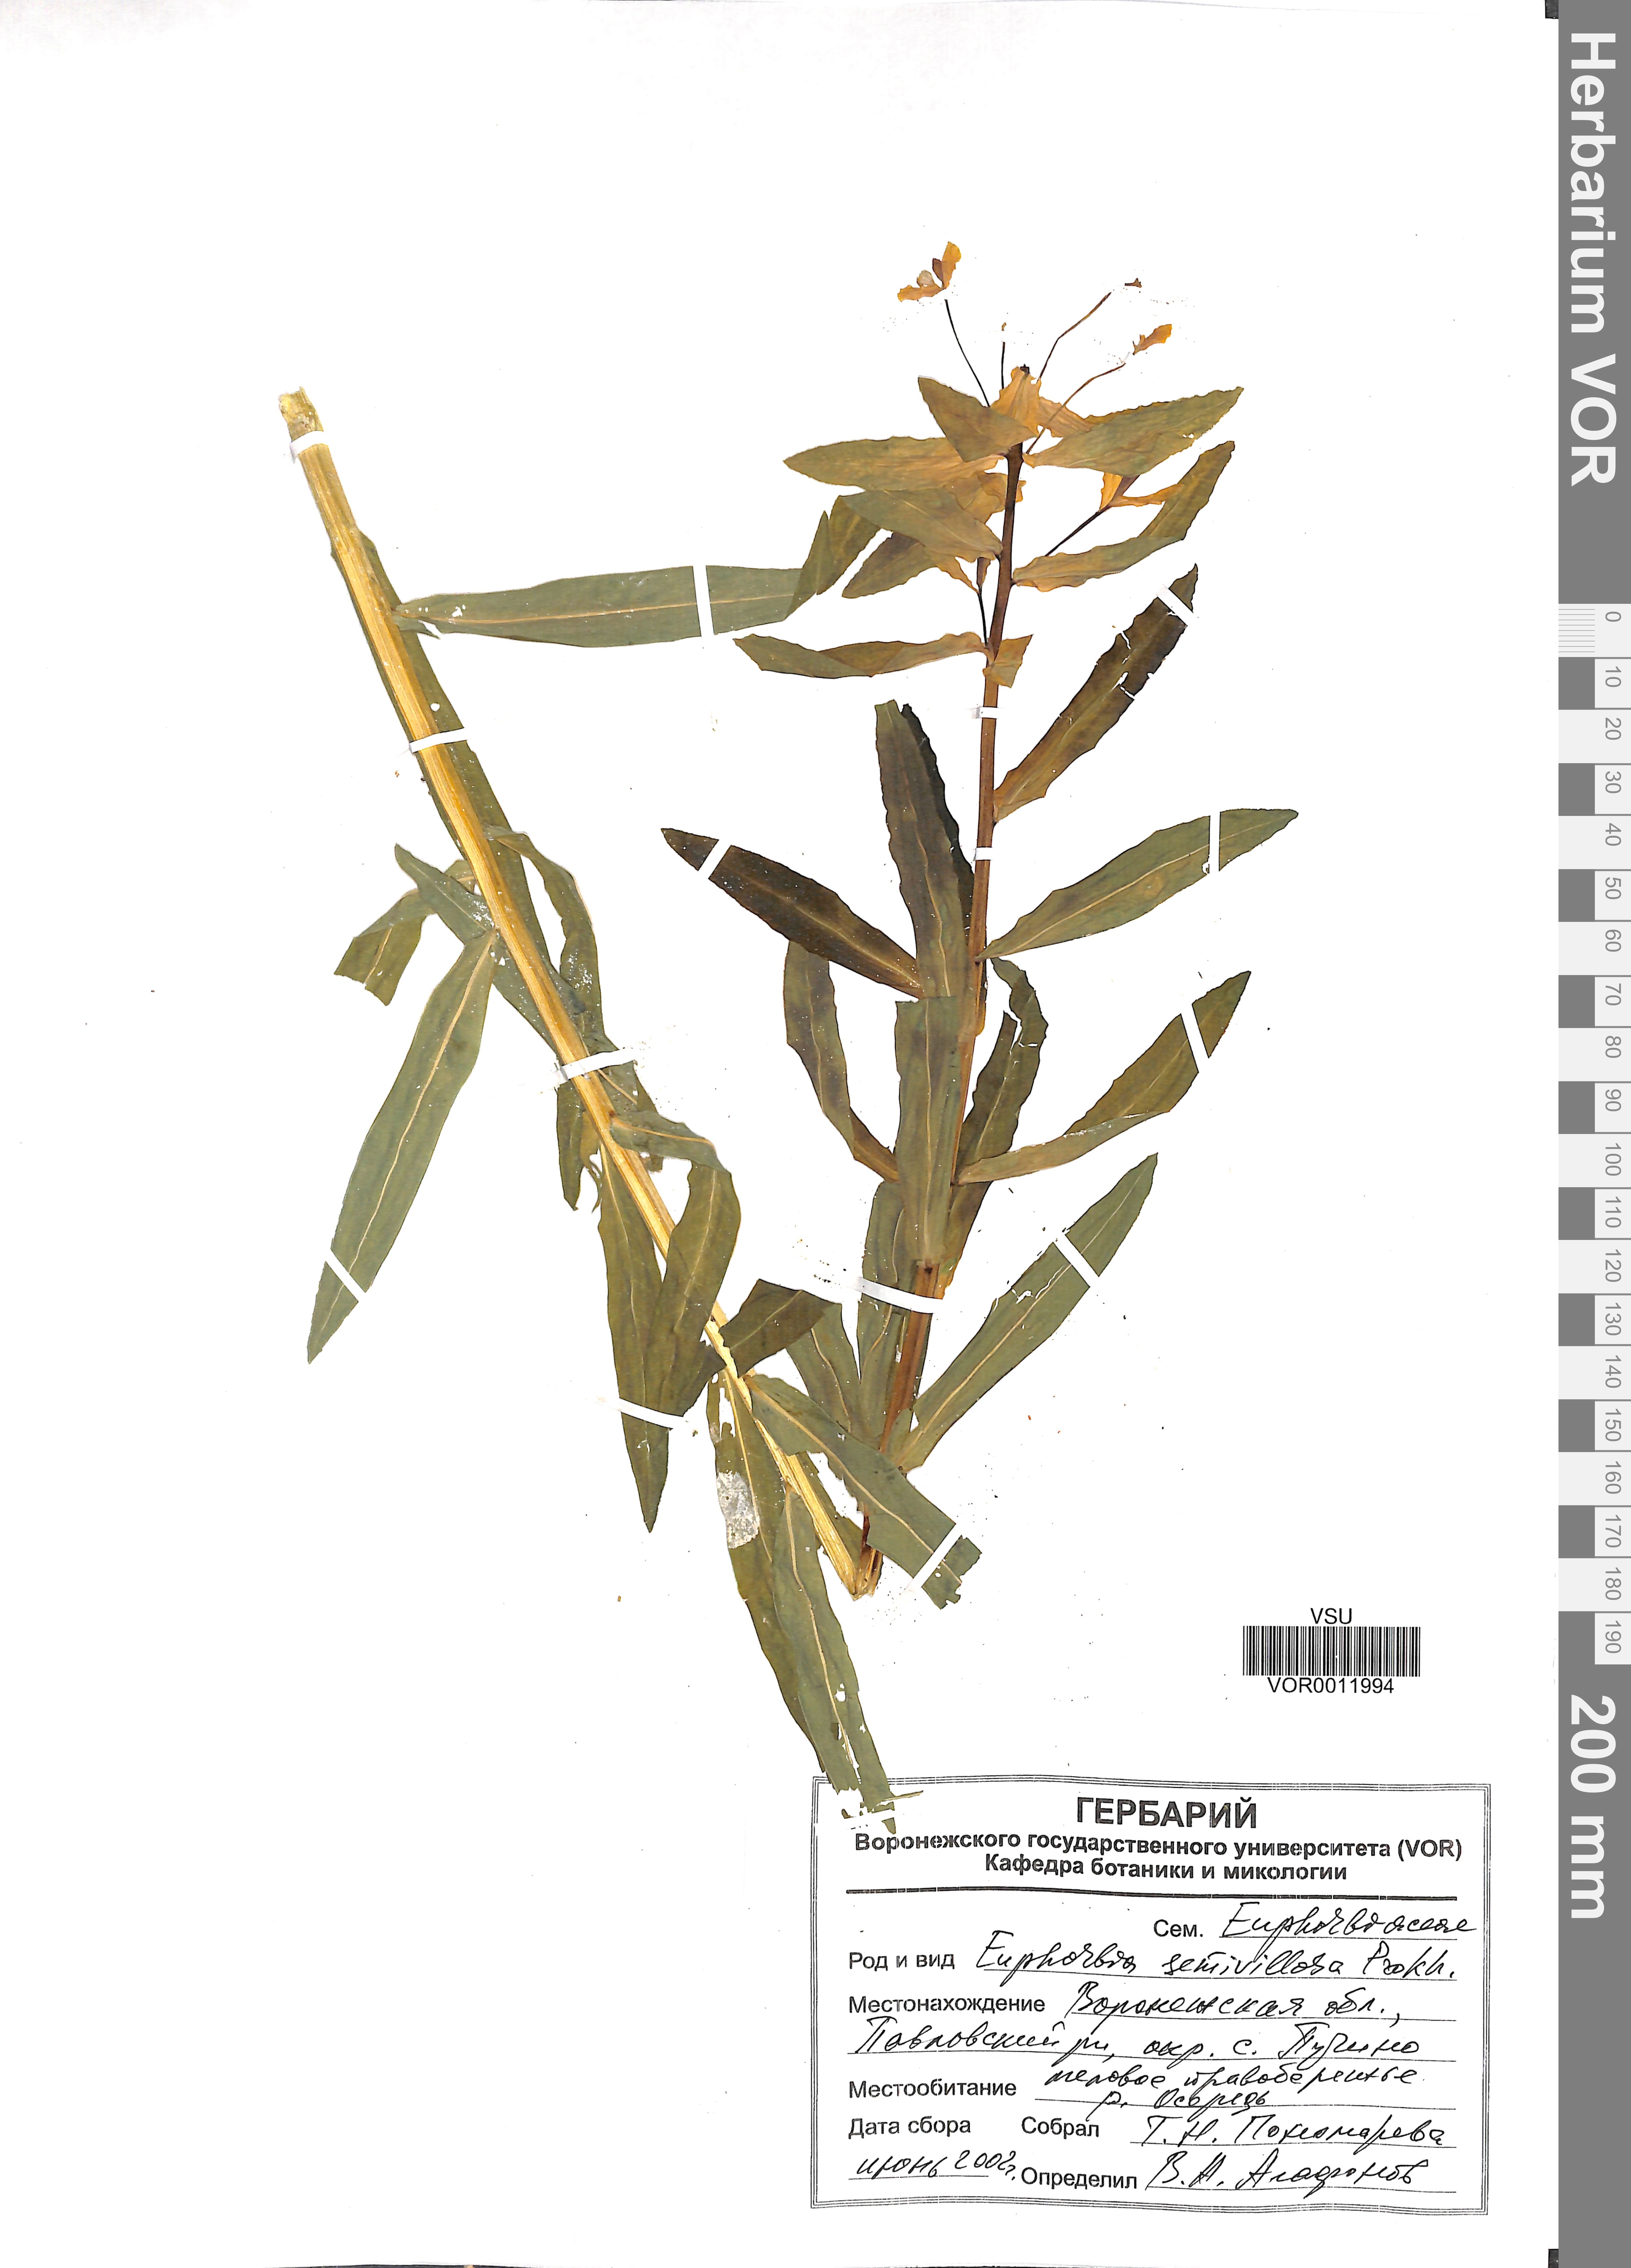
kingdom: Plantae
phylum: Tracheophyta
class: Magnoliopsida
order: Malpighiales
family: Euphorbiaceae
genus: Euphorbia
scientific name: Euphorbia semivillosa
